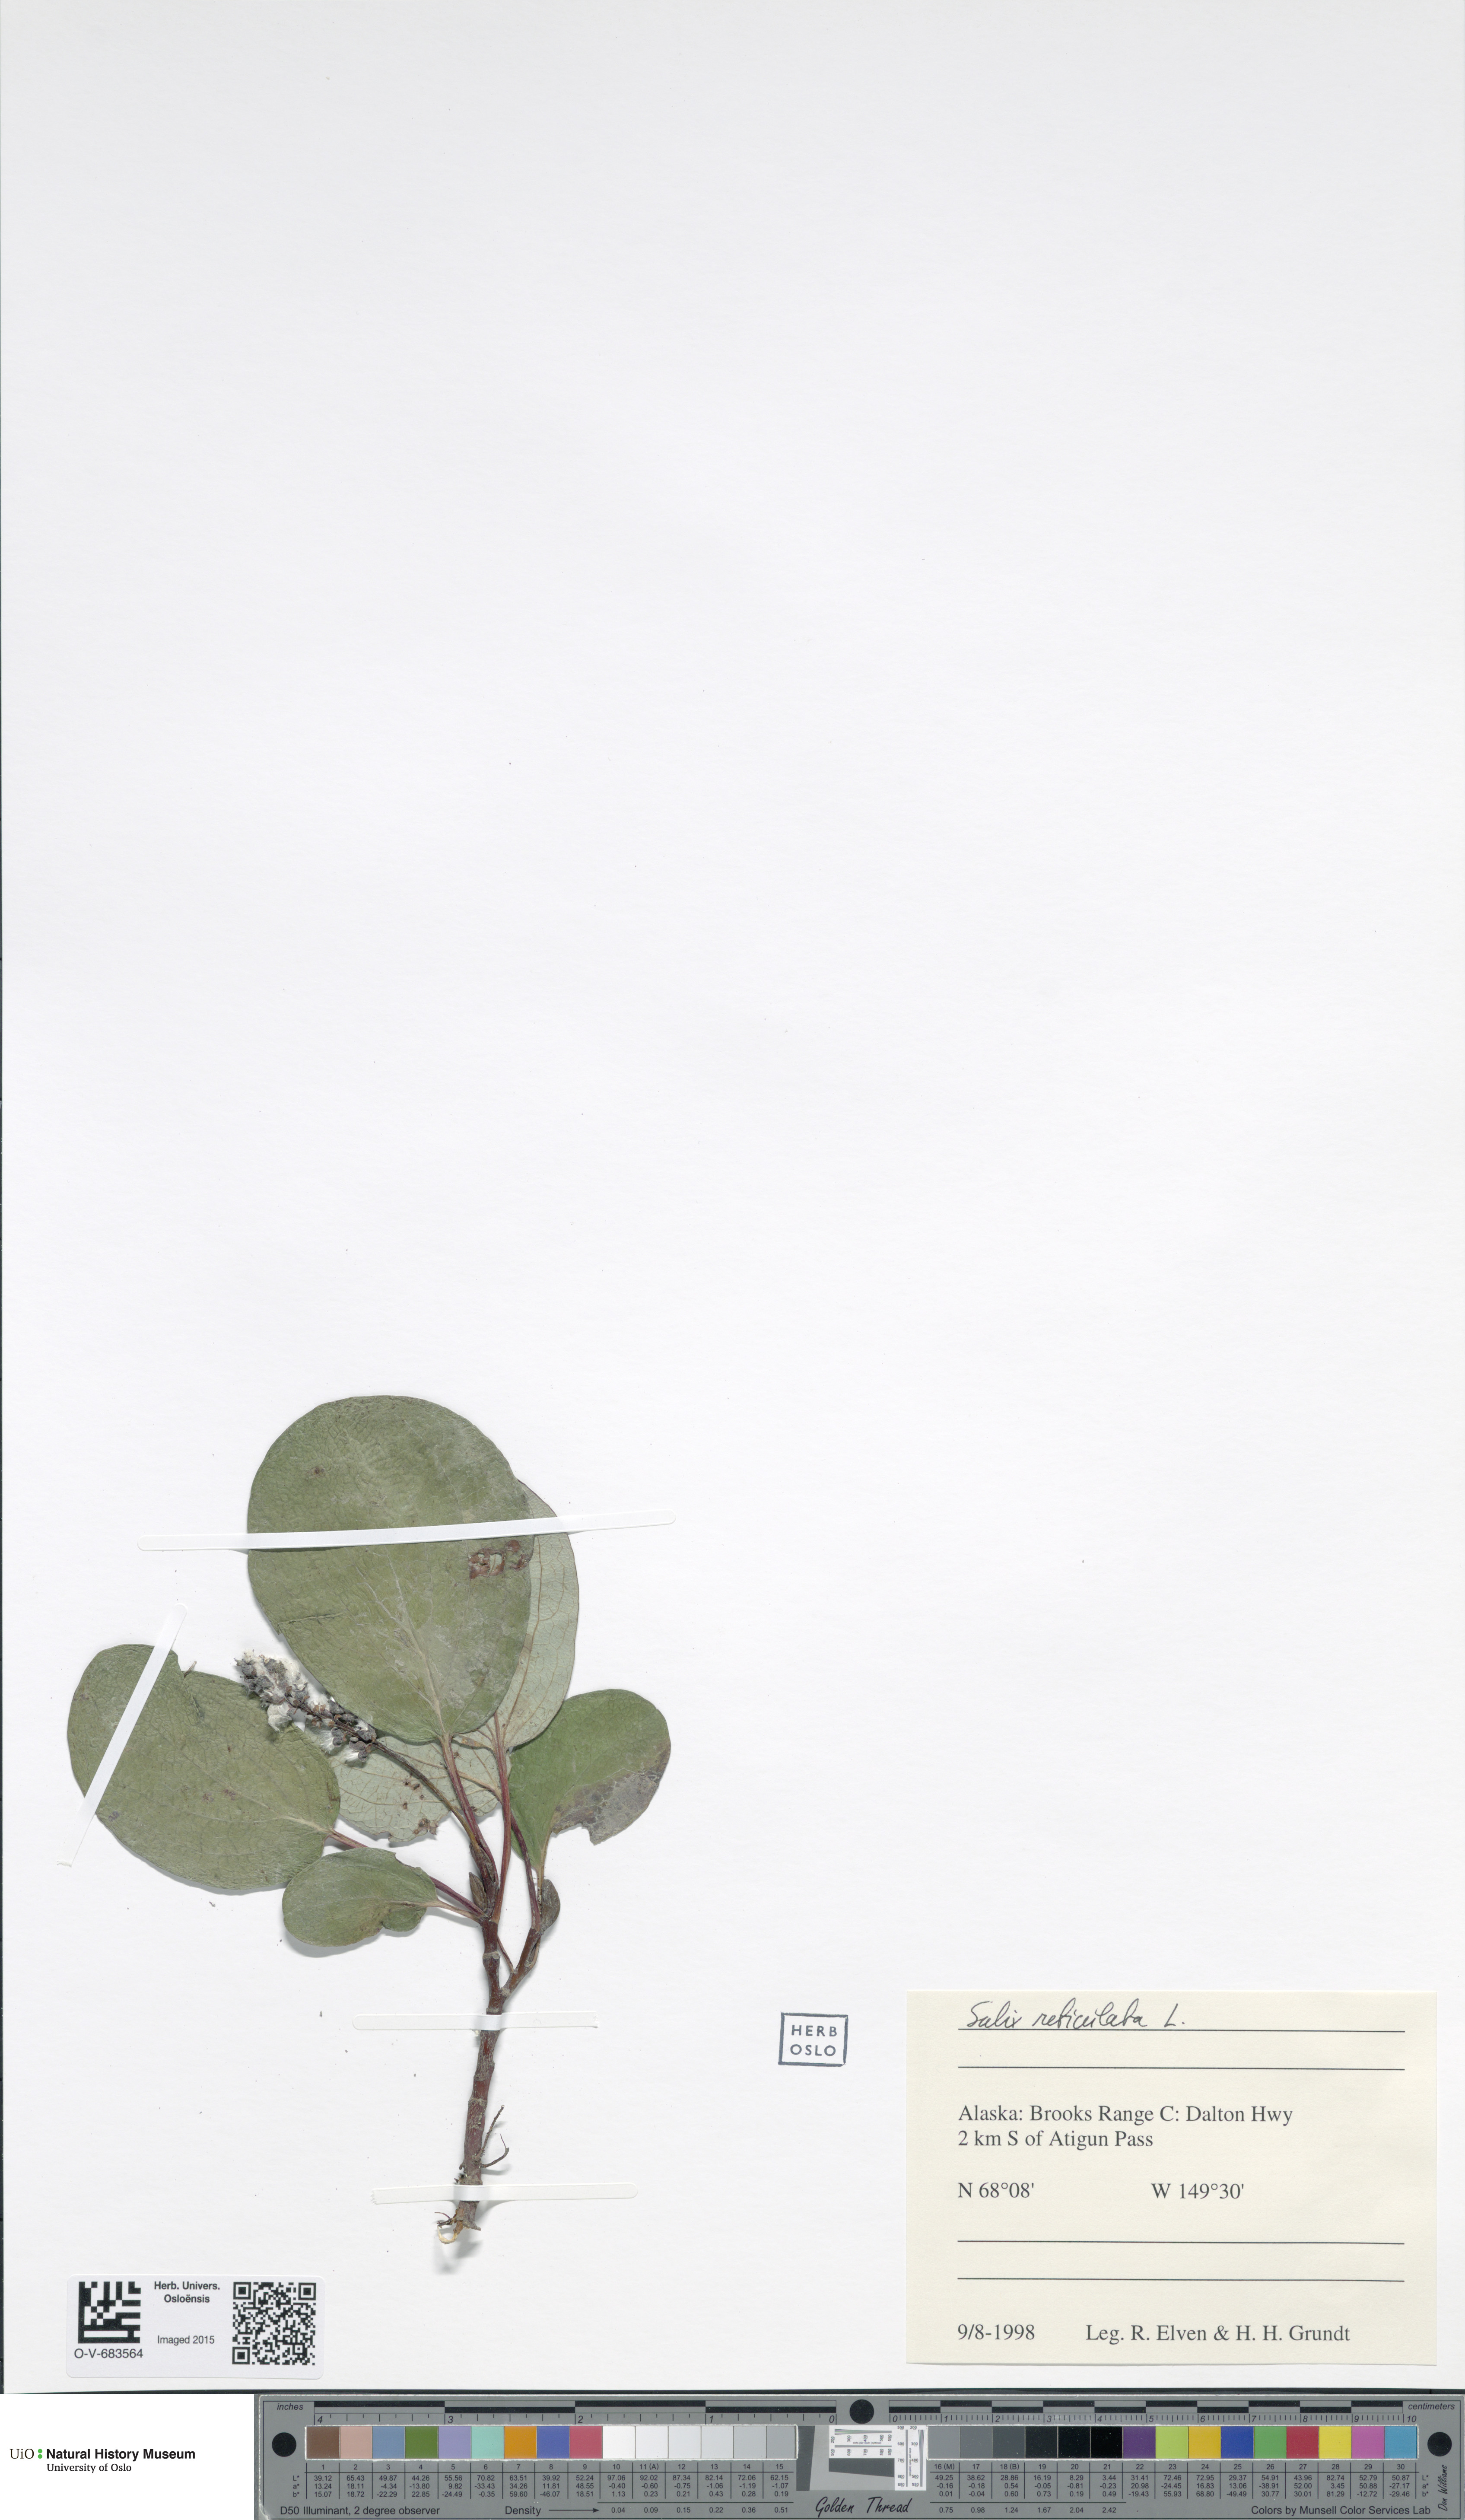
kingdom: Plantae
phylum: Tracheophyta
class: Magnoliopsida
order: Malpighiales
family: Salicaceae
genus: Salix
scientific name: Salix reticulata
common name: Net-leaved willow
